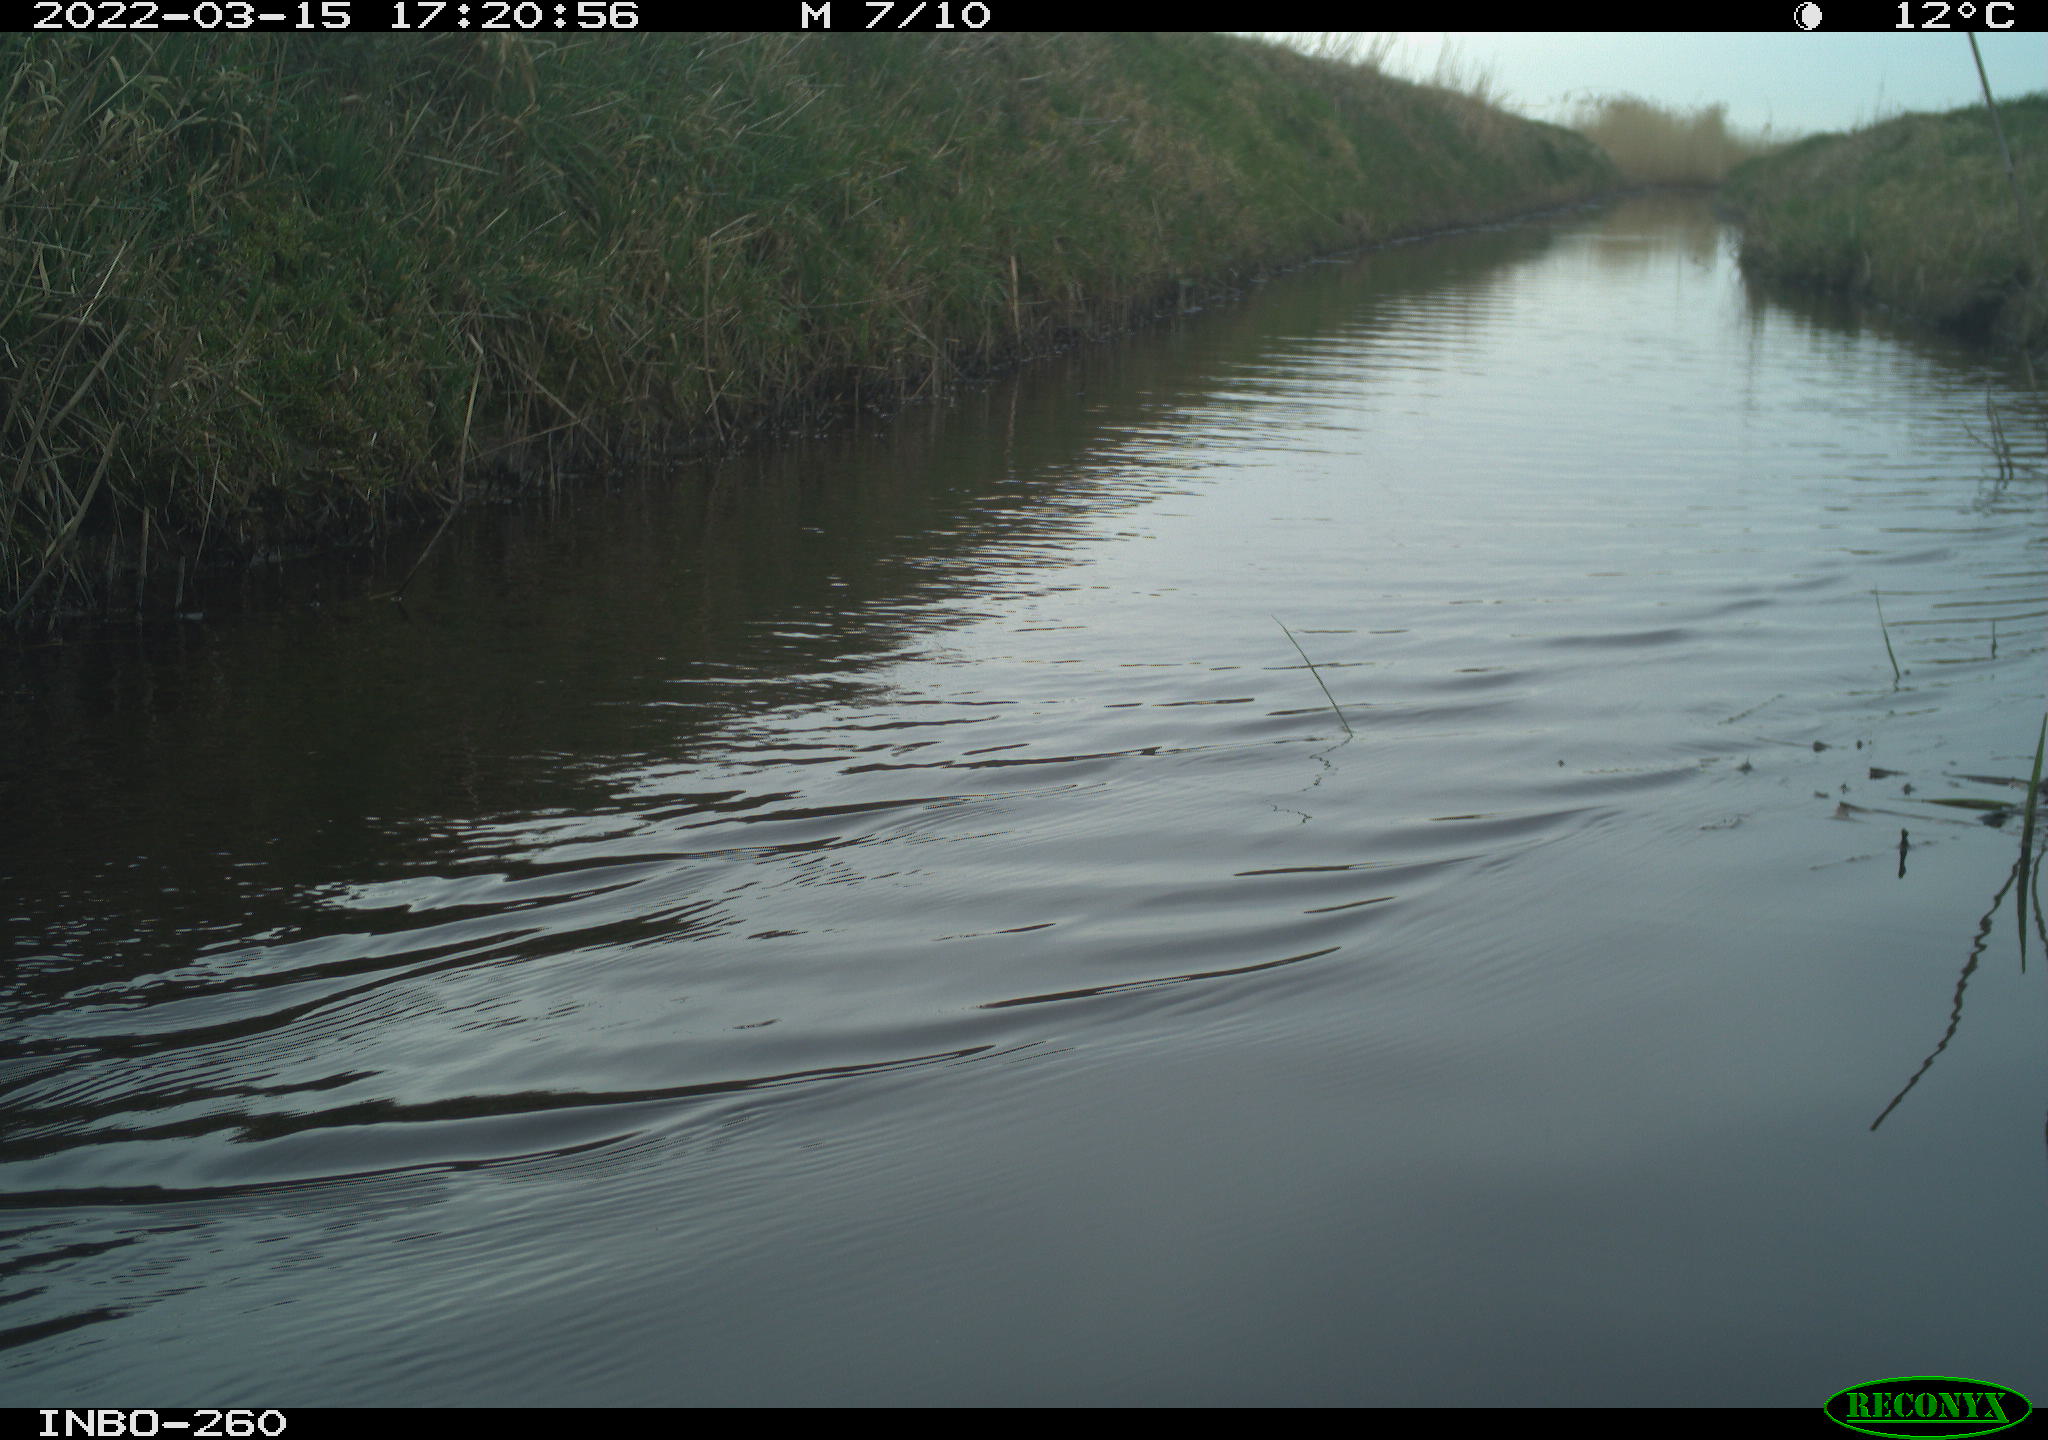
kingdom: Animalia
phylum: Chordata
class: Aves
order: Gruiformes
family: Rallidae
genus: Fulica
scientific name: Fulica atra
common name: Eurasian coot
